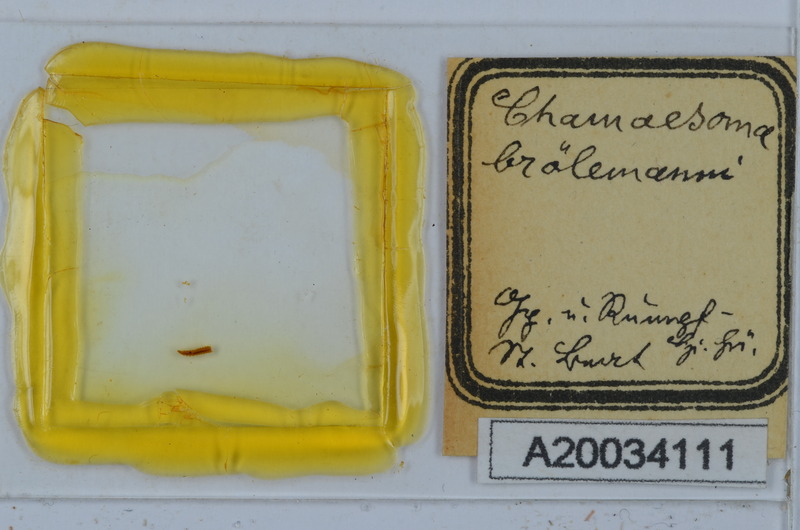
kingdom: Animalia
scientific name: Animalia
